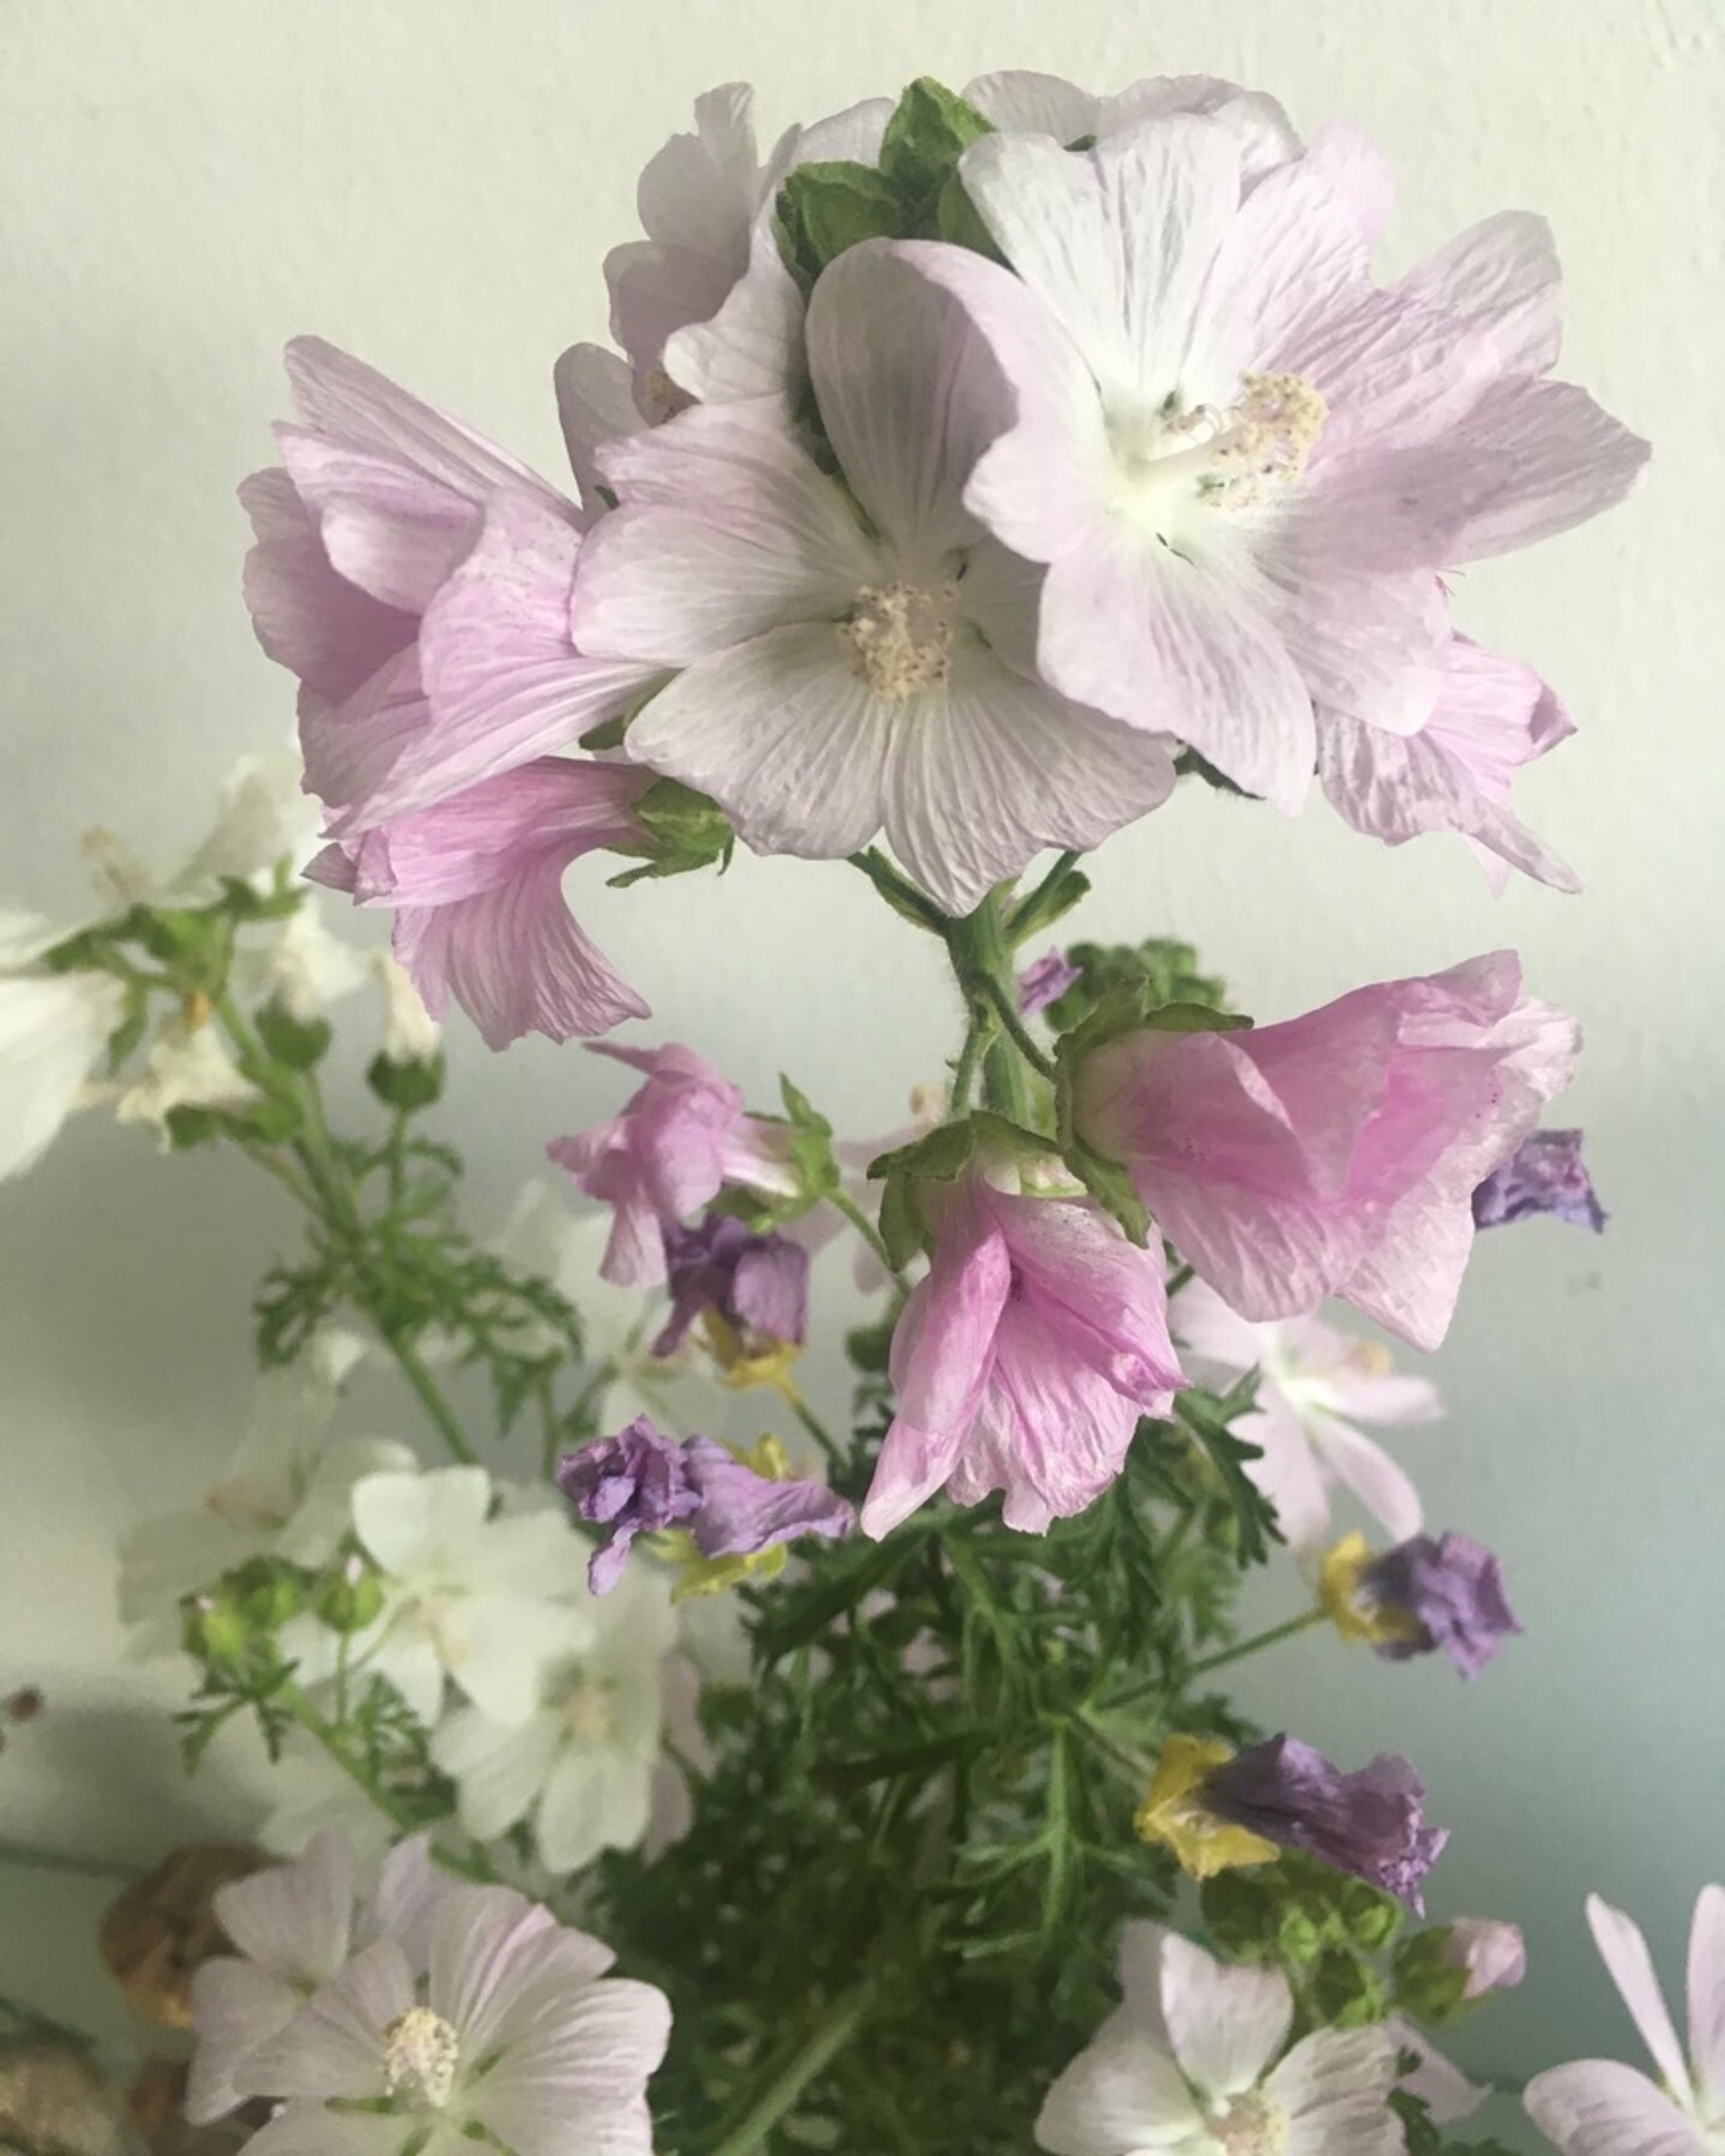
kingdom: Plantae
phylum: Tracheophyta
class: Magnoliopsida
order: Malvales
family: Malvaceae
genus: Malva
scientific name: Malva moschata
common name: Moskus-katost
